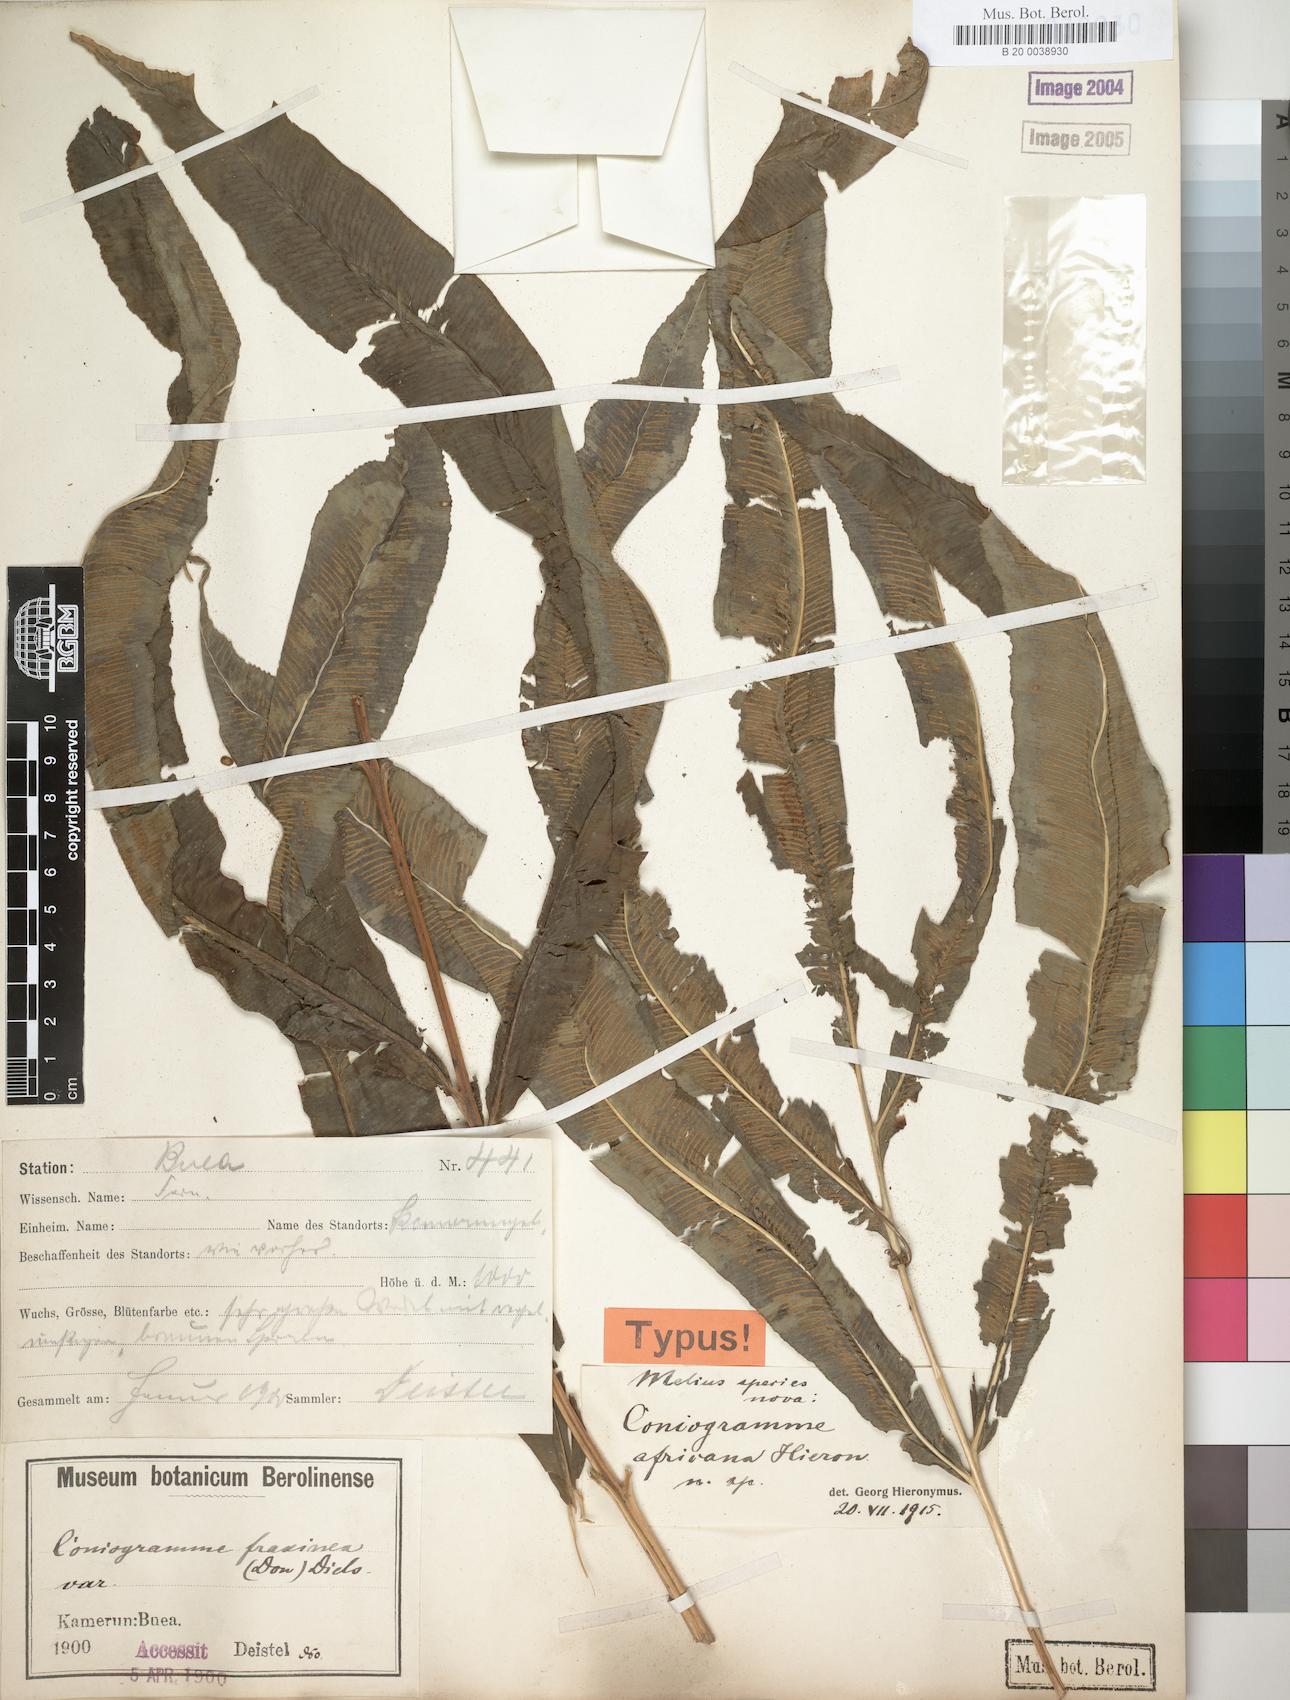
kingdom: Plantae
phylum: Tracheophyta
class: Polypodiopsida
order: Polypodiales
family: Pteridaceae
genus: Coniogramme
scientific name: Coniogramme africana
